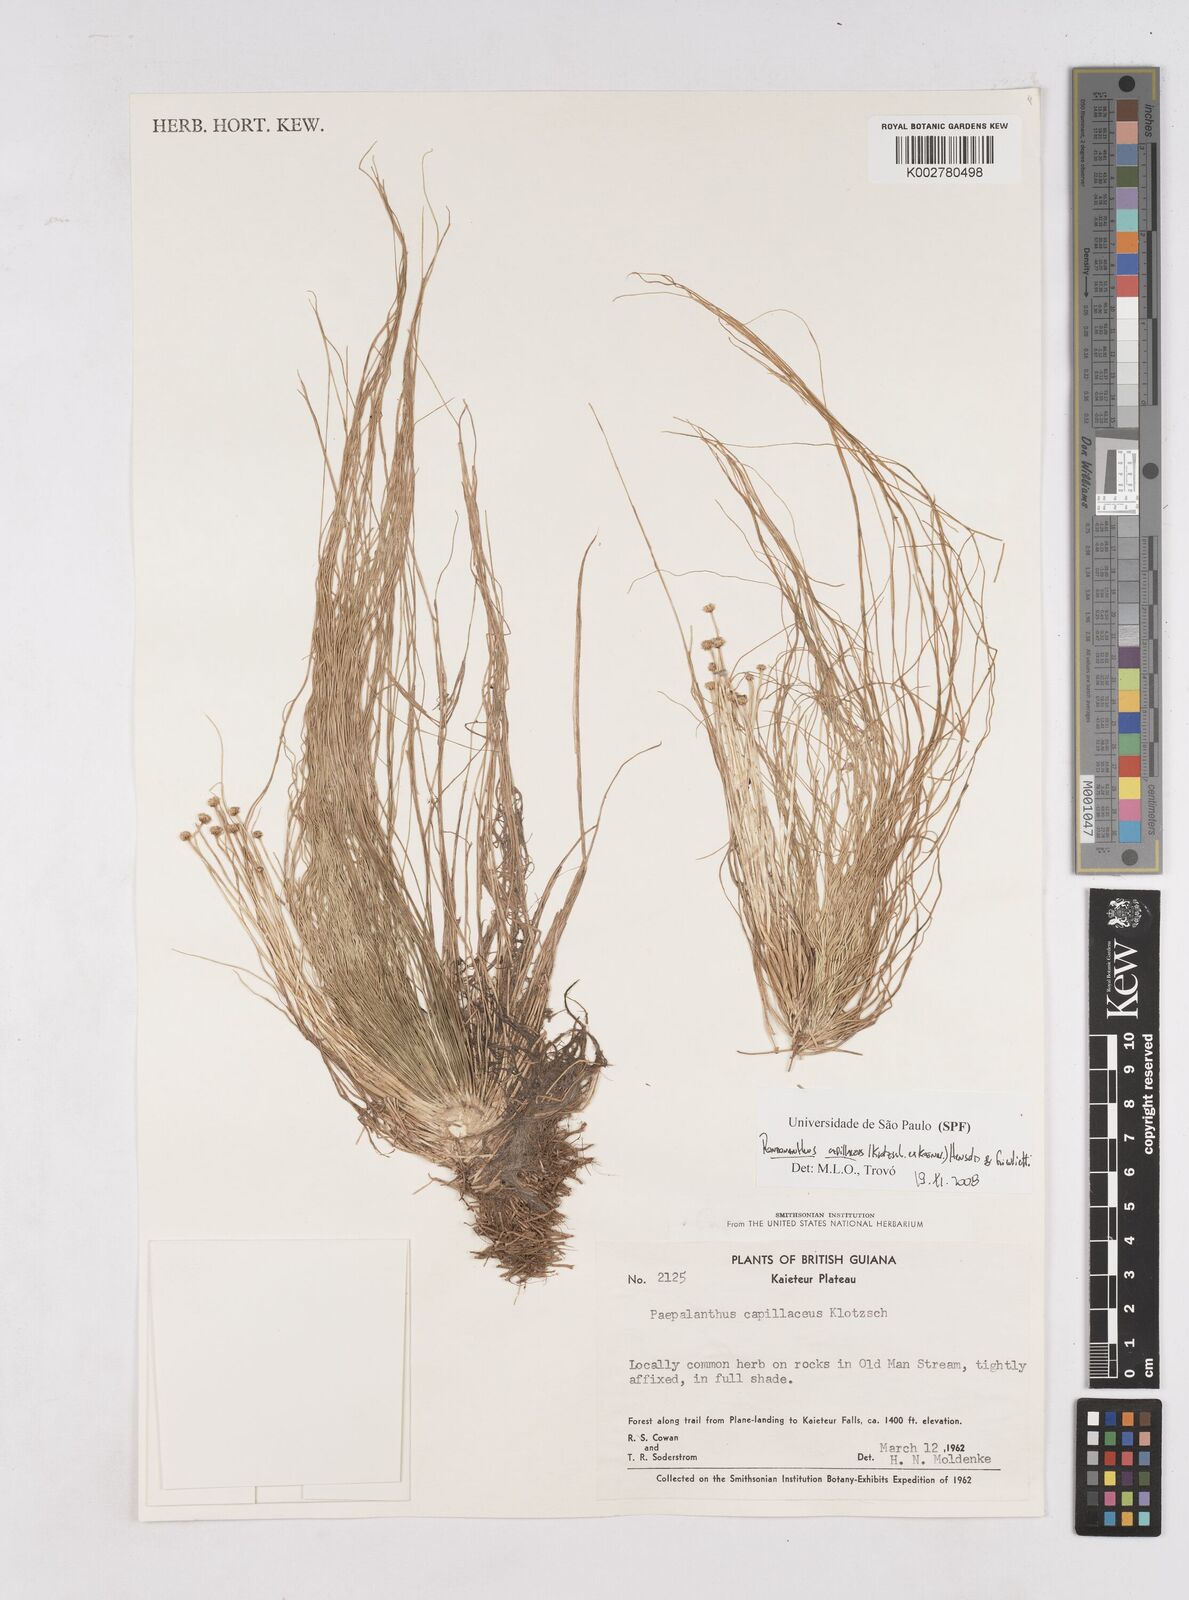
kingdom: Plantae
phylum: Tracheophyta
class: Liliopsida
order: Poales
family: Eriocaulaceae
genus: Rondonanthus
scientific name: Rondonanthus capillaceus
